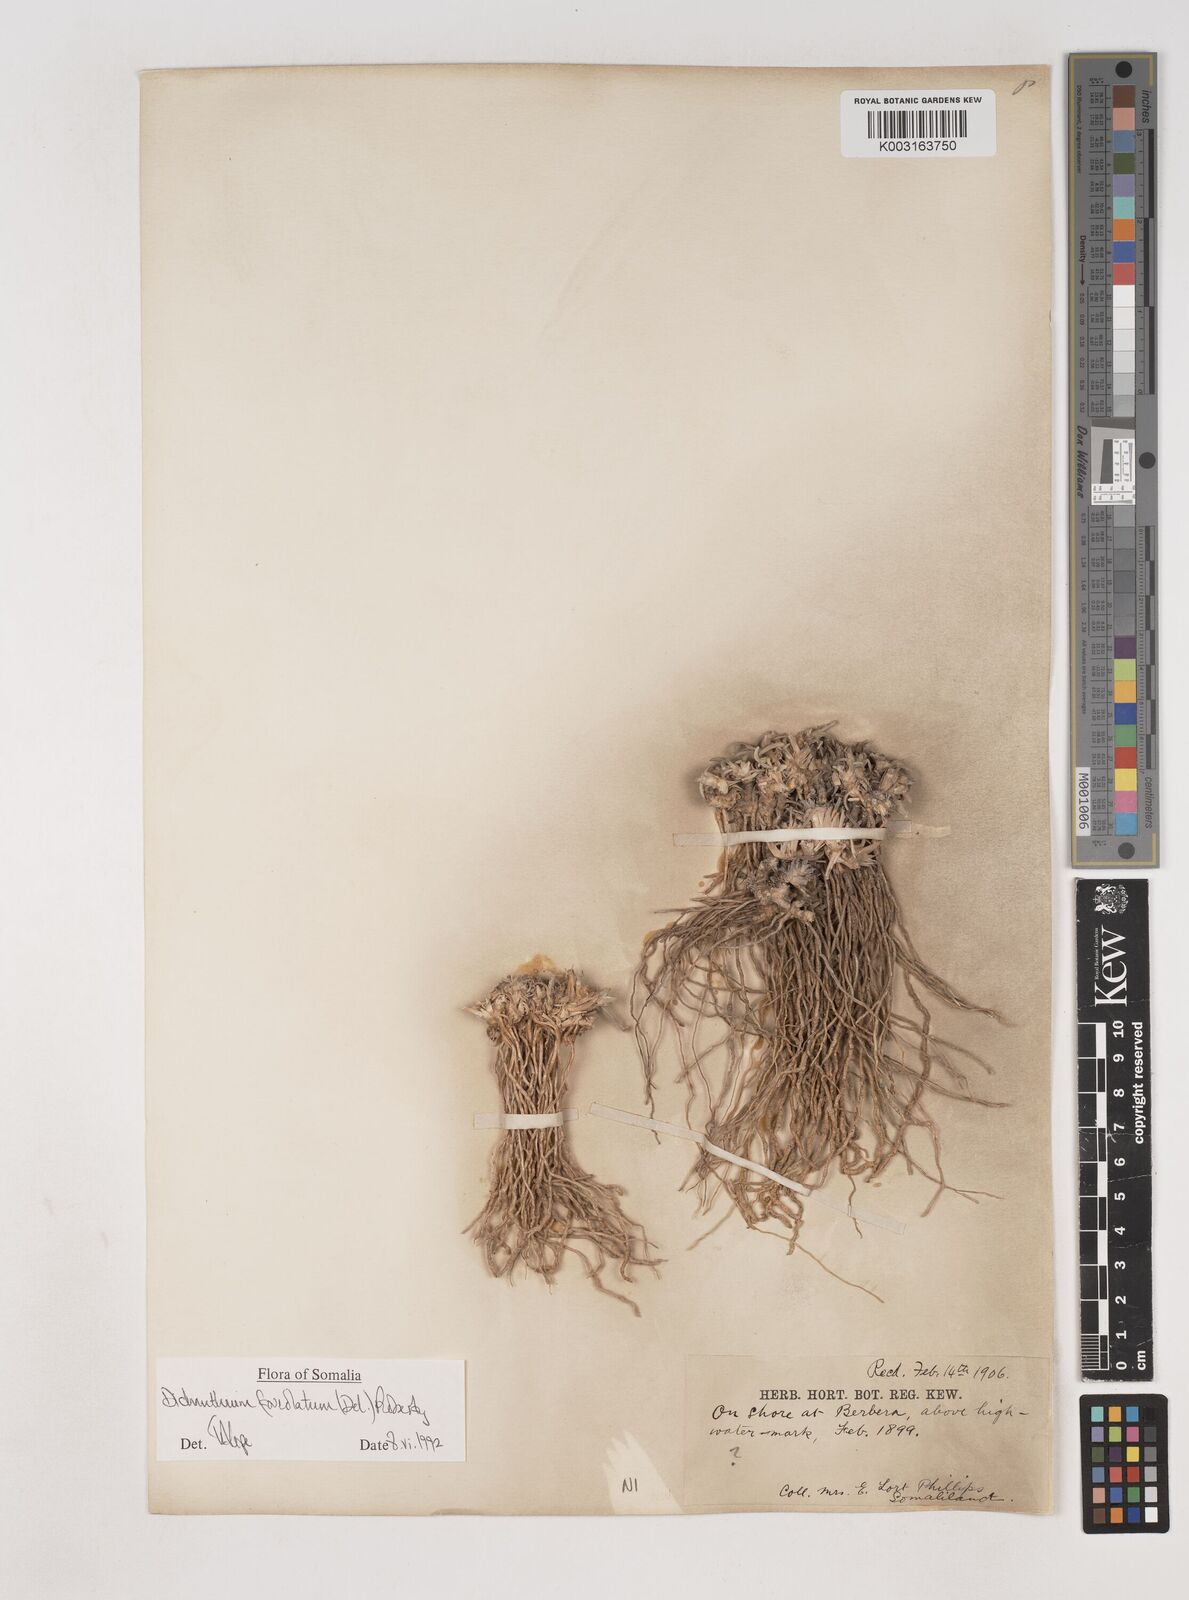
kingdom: Plantae
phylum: Tracheophyta
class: Liliopsida
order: Poales
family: Poaceae
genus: Dichanthium
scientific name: Dichanthium foveolatum
